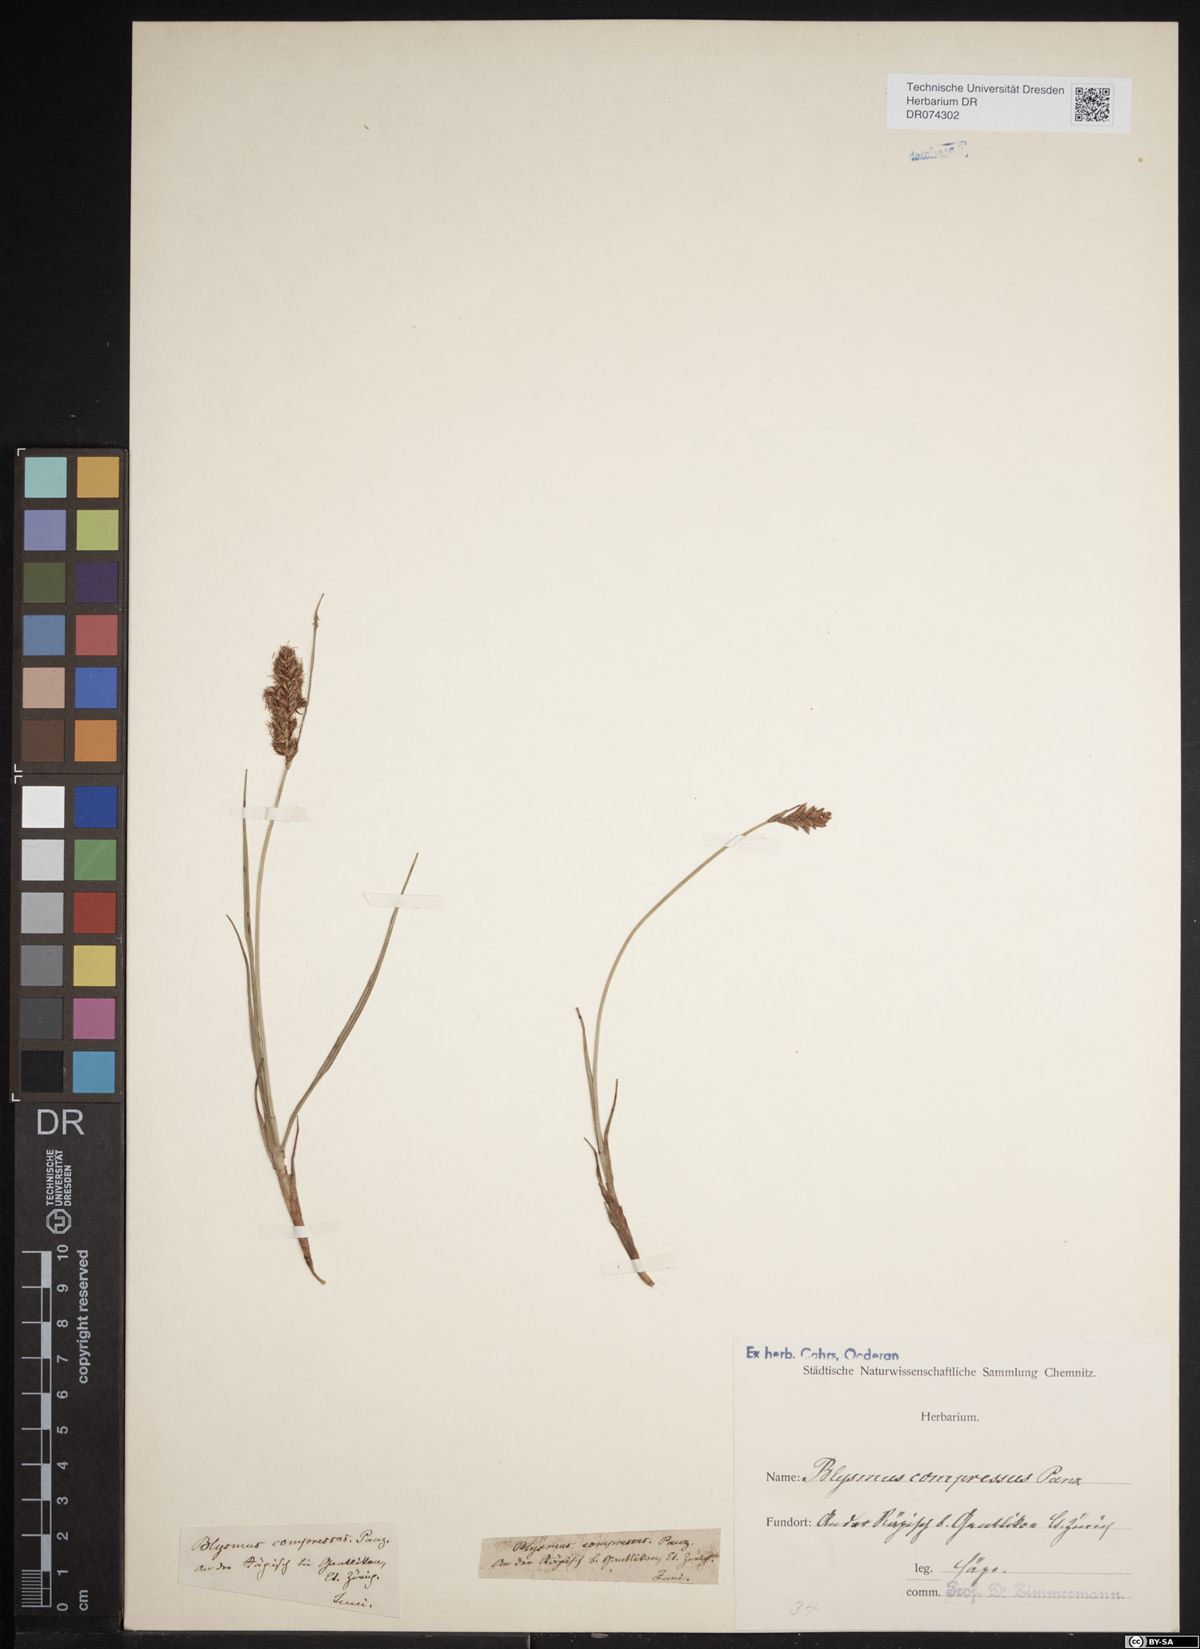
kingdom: Plantae
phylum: Tracheophyta
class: Liliopsida
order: Poales
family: Cyperaceae
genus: Blysmus
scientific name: Blysmus compressus
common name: Flat-sedge
